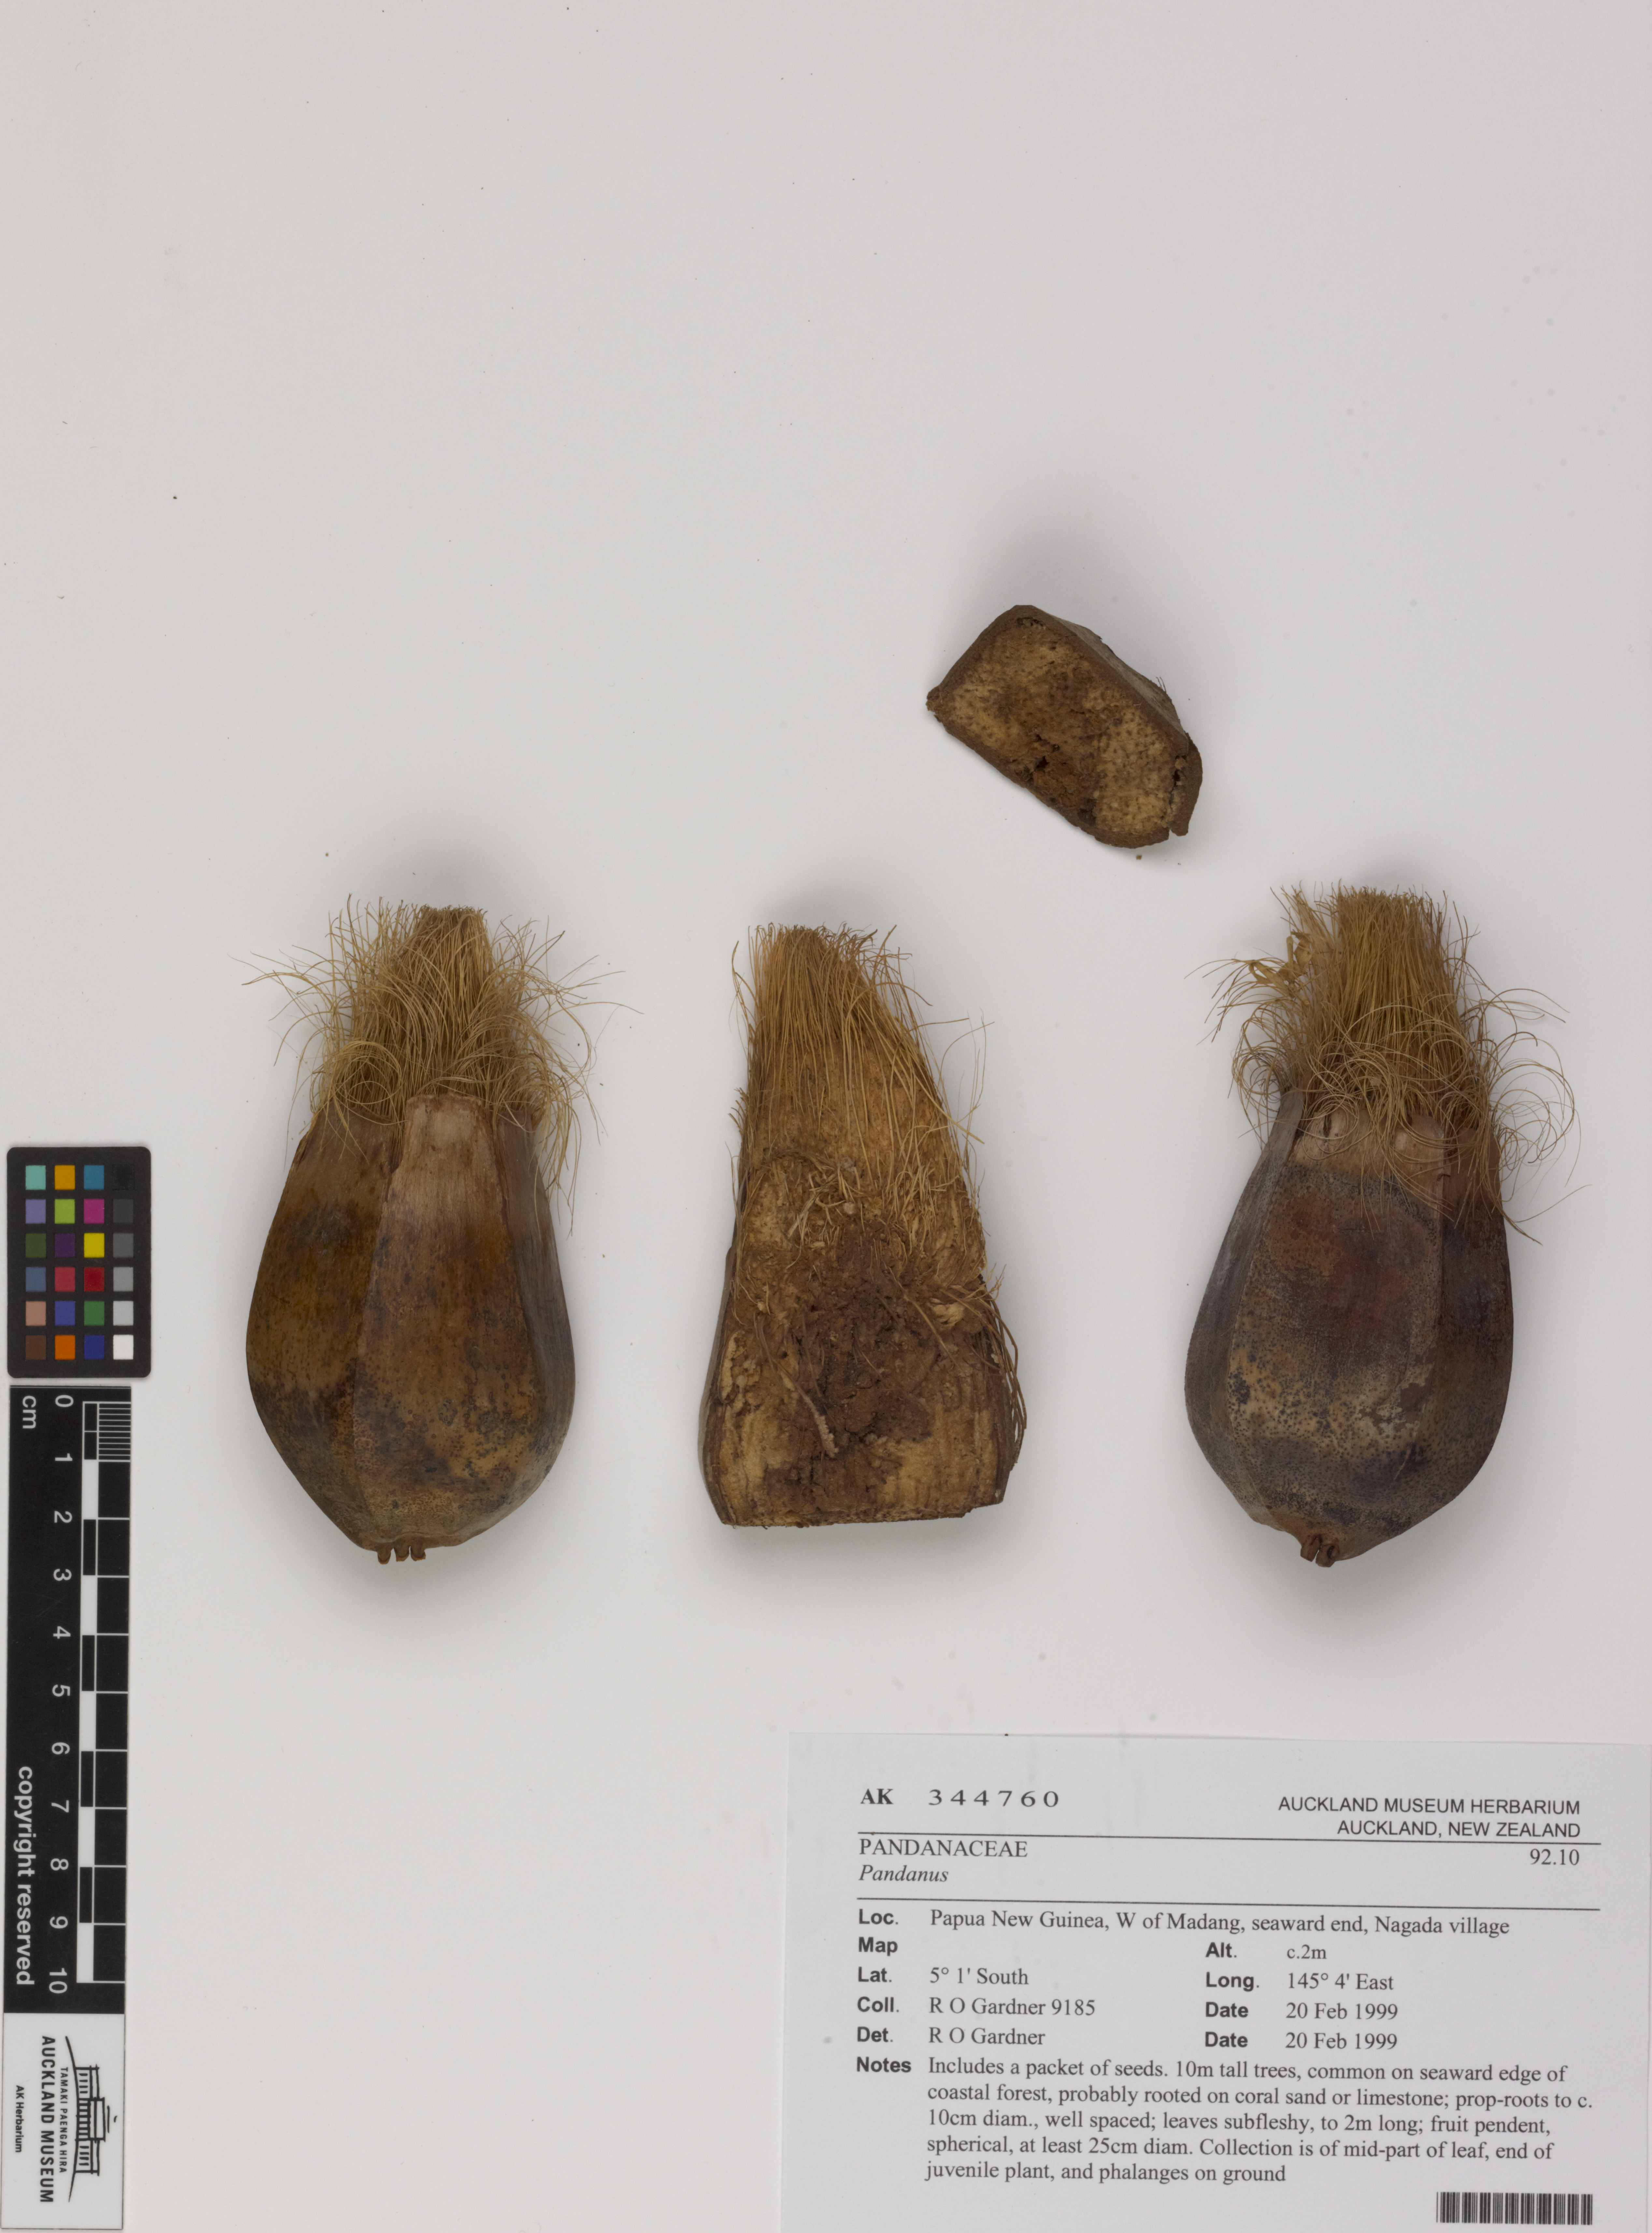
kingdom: Plantae
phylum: Tracheophyta
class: Liliopsida
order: Pandanales
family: Pandanaceae
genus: Pandanus
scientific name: Pandanus
